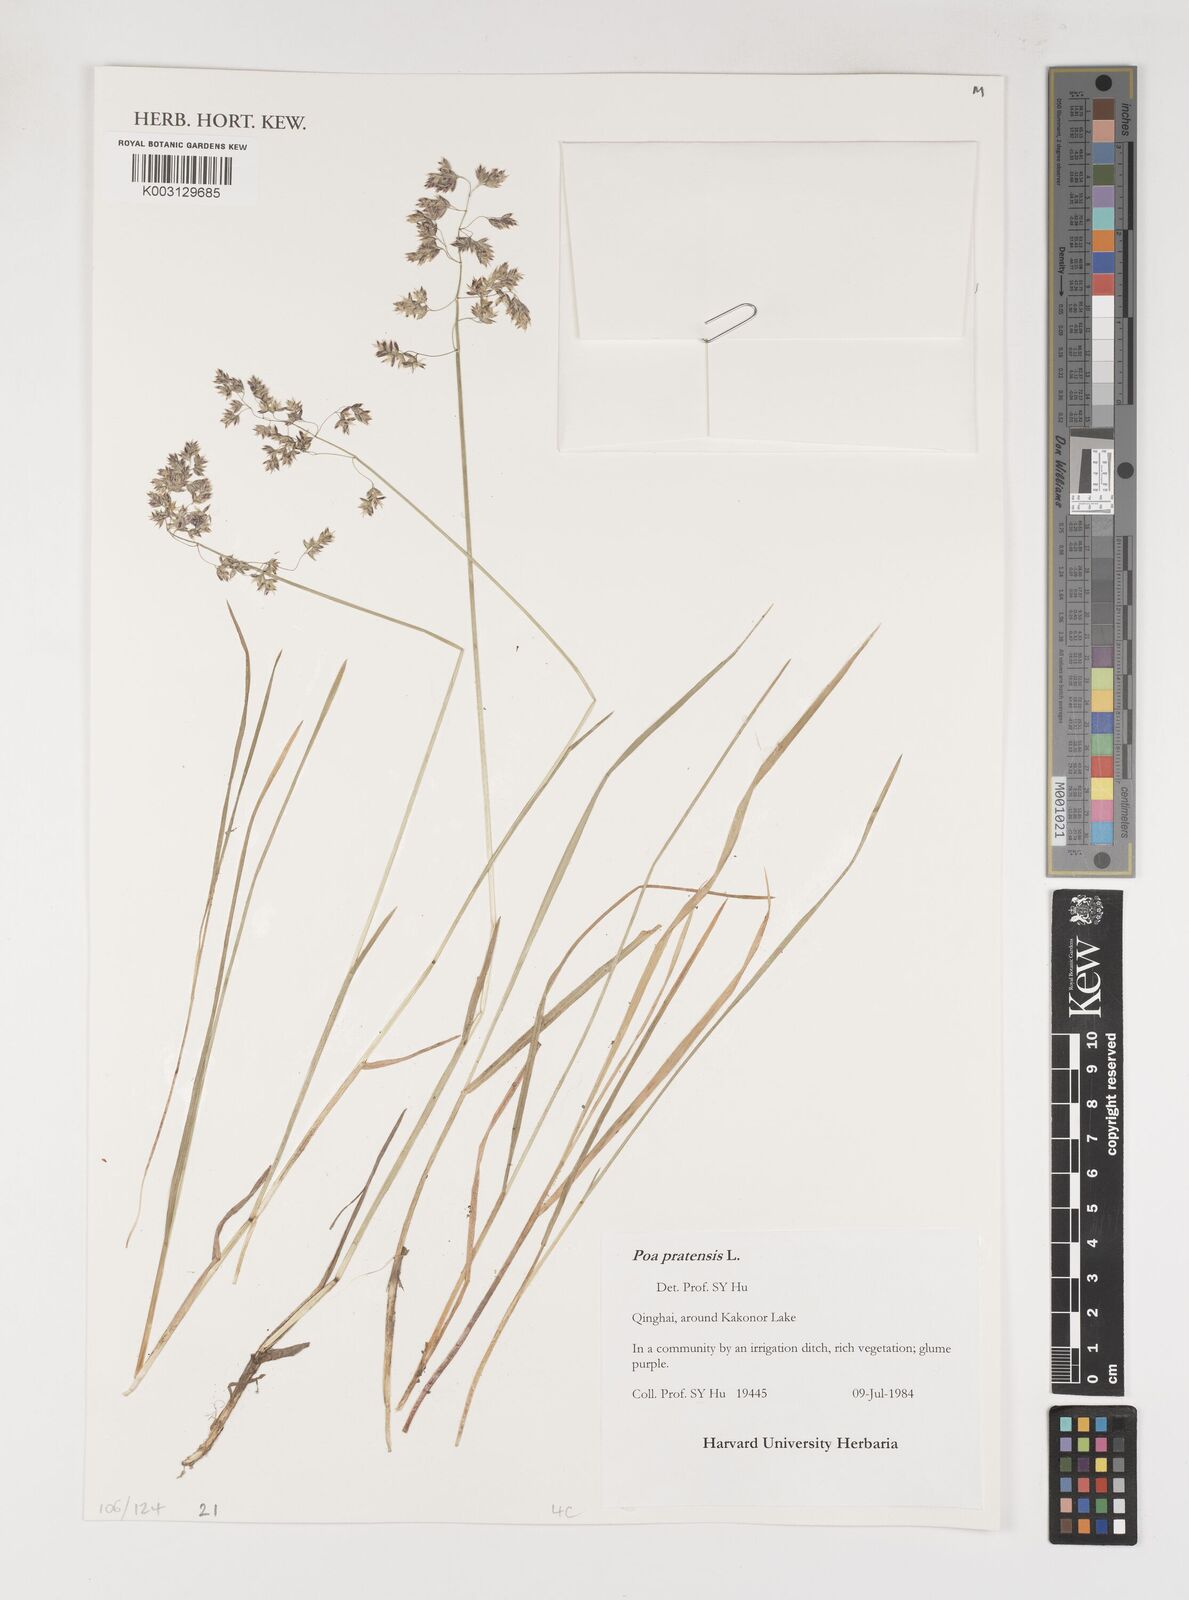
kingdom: Plantae
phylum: Tracheophyta
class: Liliopsida
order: Poales
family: Poaceae
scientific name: Poaceae
